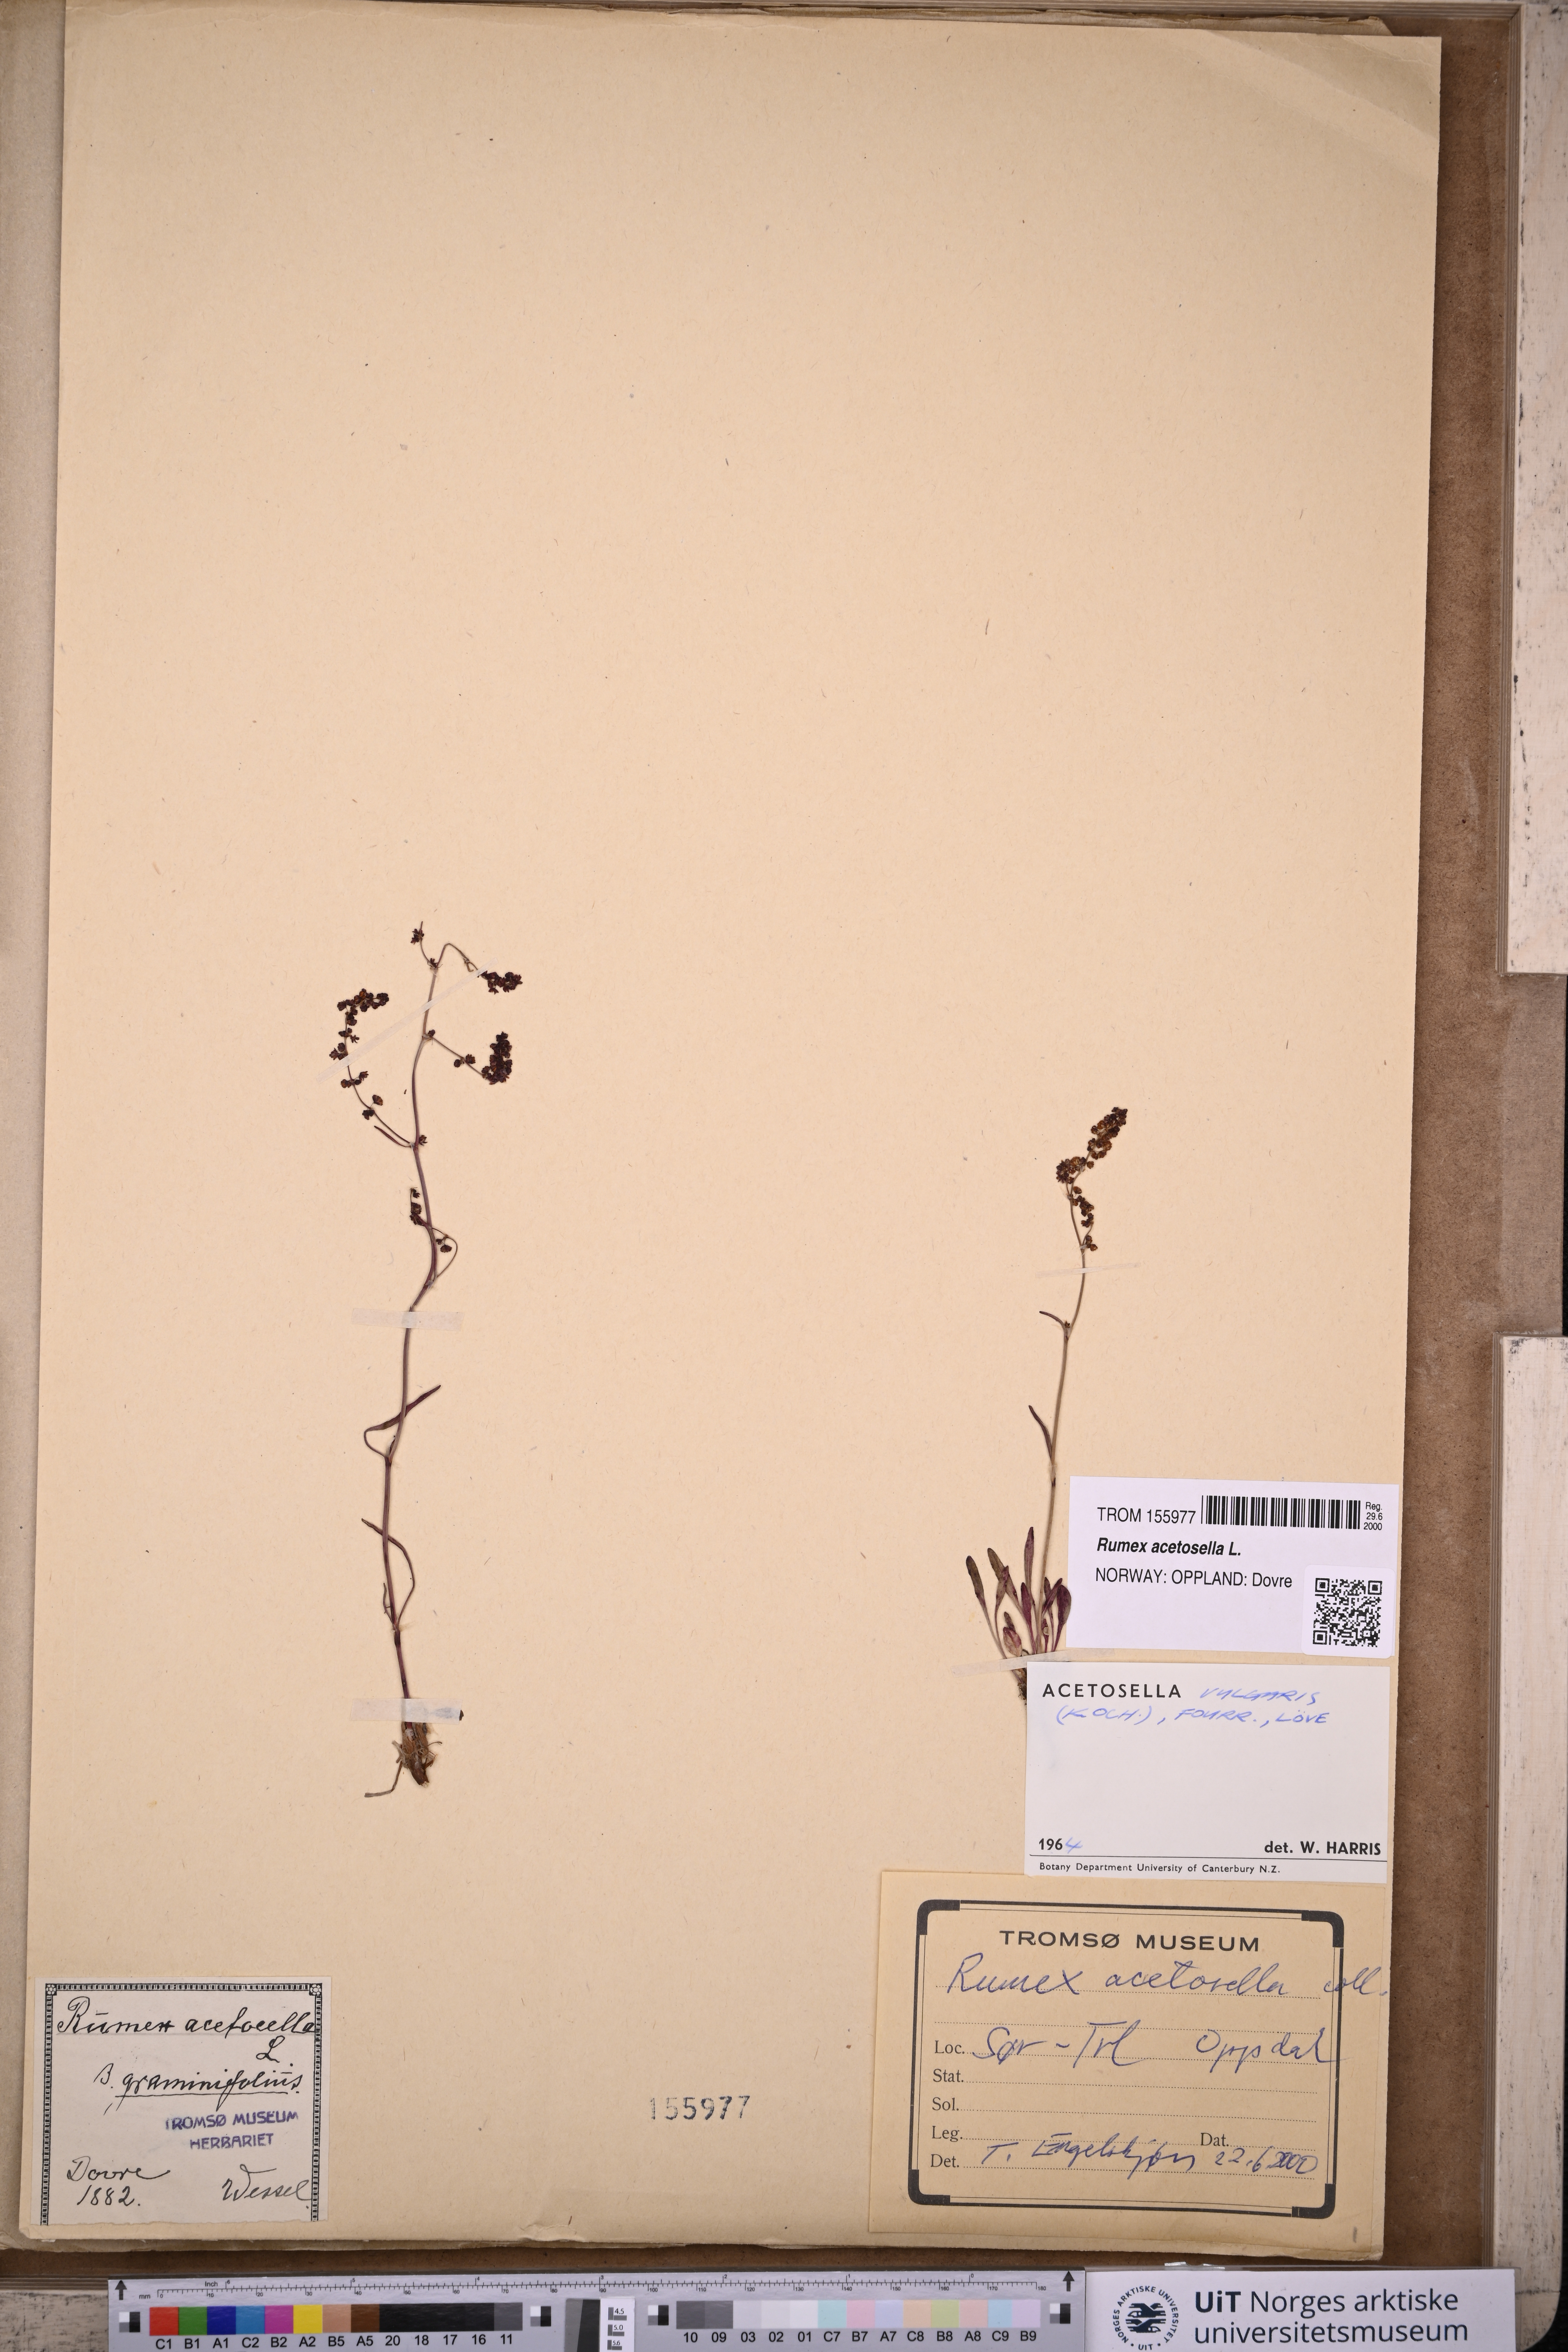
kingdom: Plantae
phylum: Tracheophyta
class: Magnoliopsida
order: Caryophyllales
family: Polygonaceae
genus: Rumex
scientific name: Rumex acetosella
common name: Common sheep sorrel
